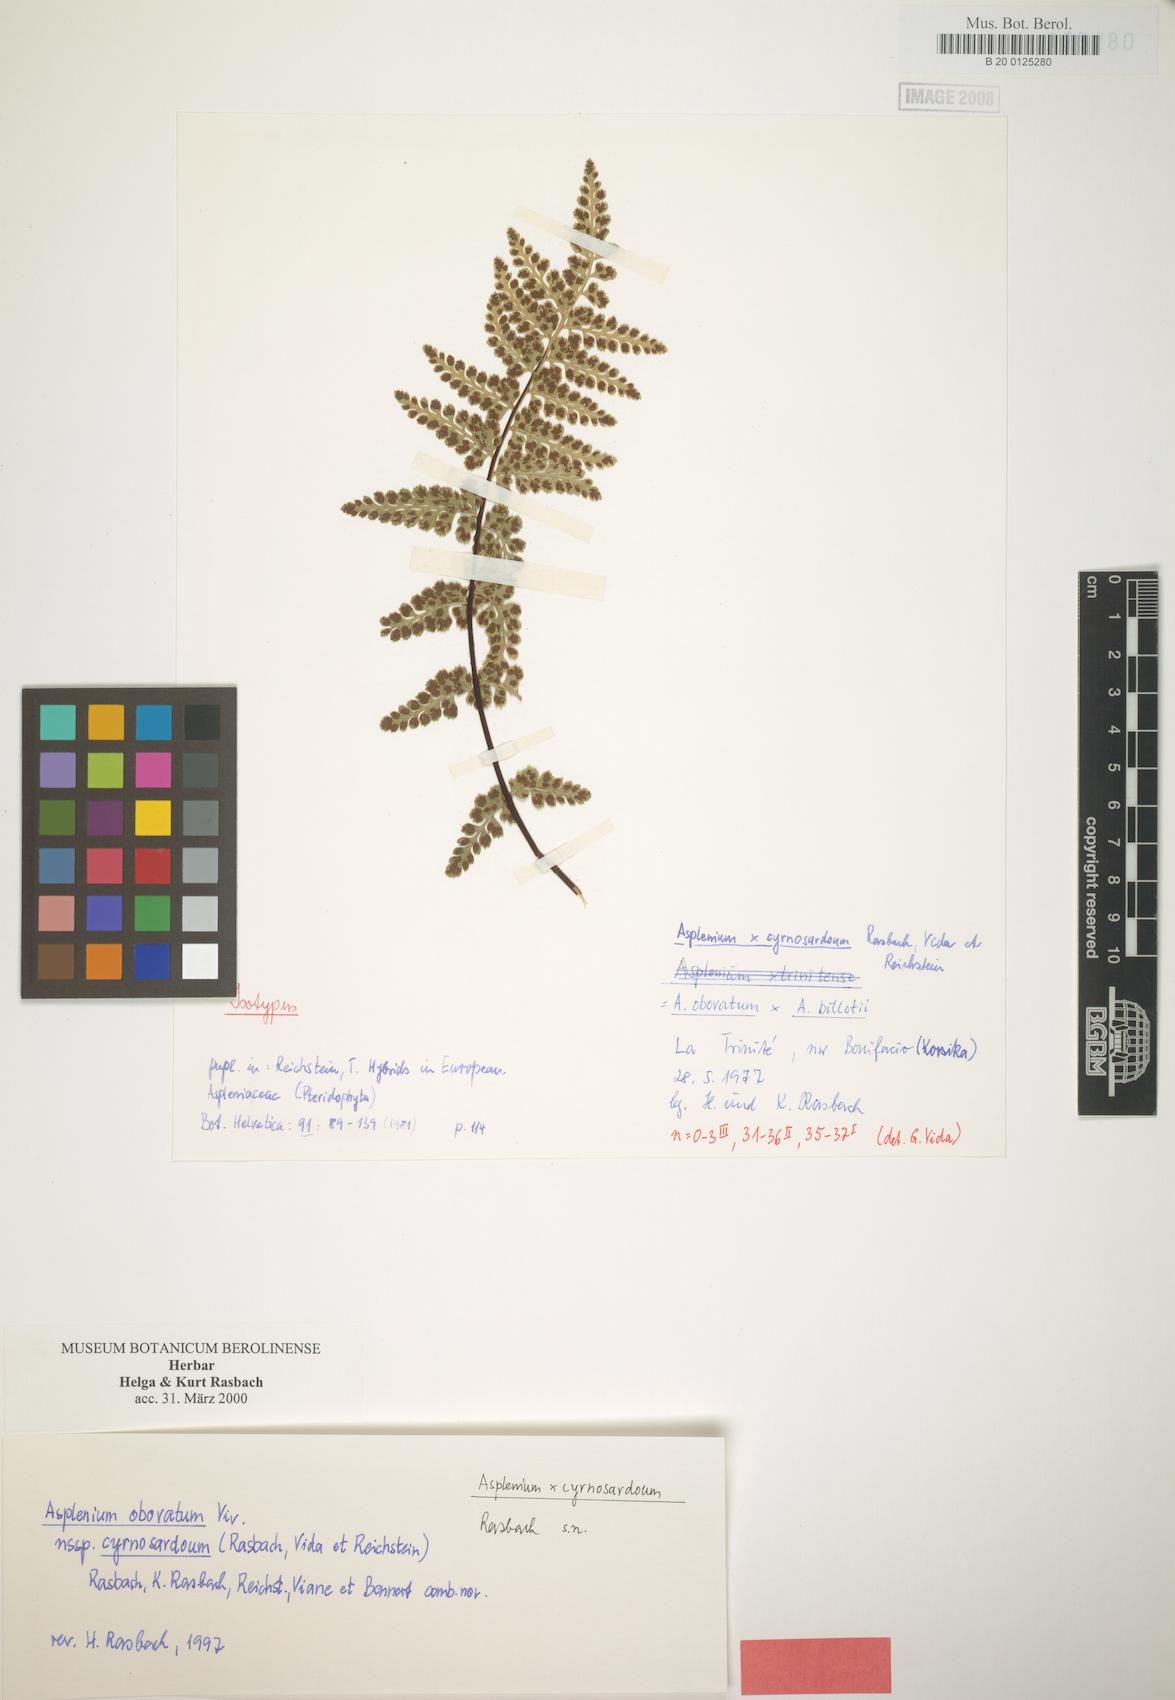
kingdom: Plantae
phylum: Tracheophyta
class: Polypodiopsida
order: Polypodiales
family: Aspleniaceae
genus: Asplenium
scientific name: Asplenium obovatum
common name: Lanceolate spleenwort
